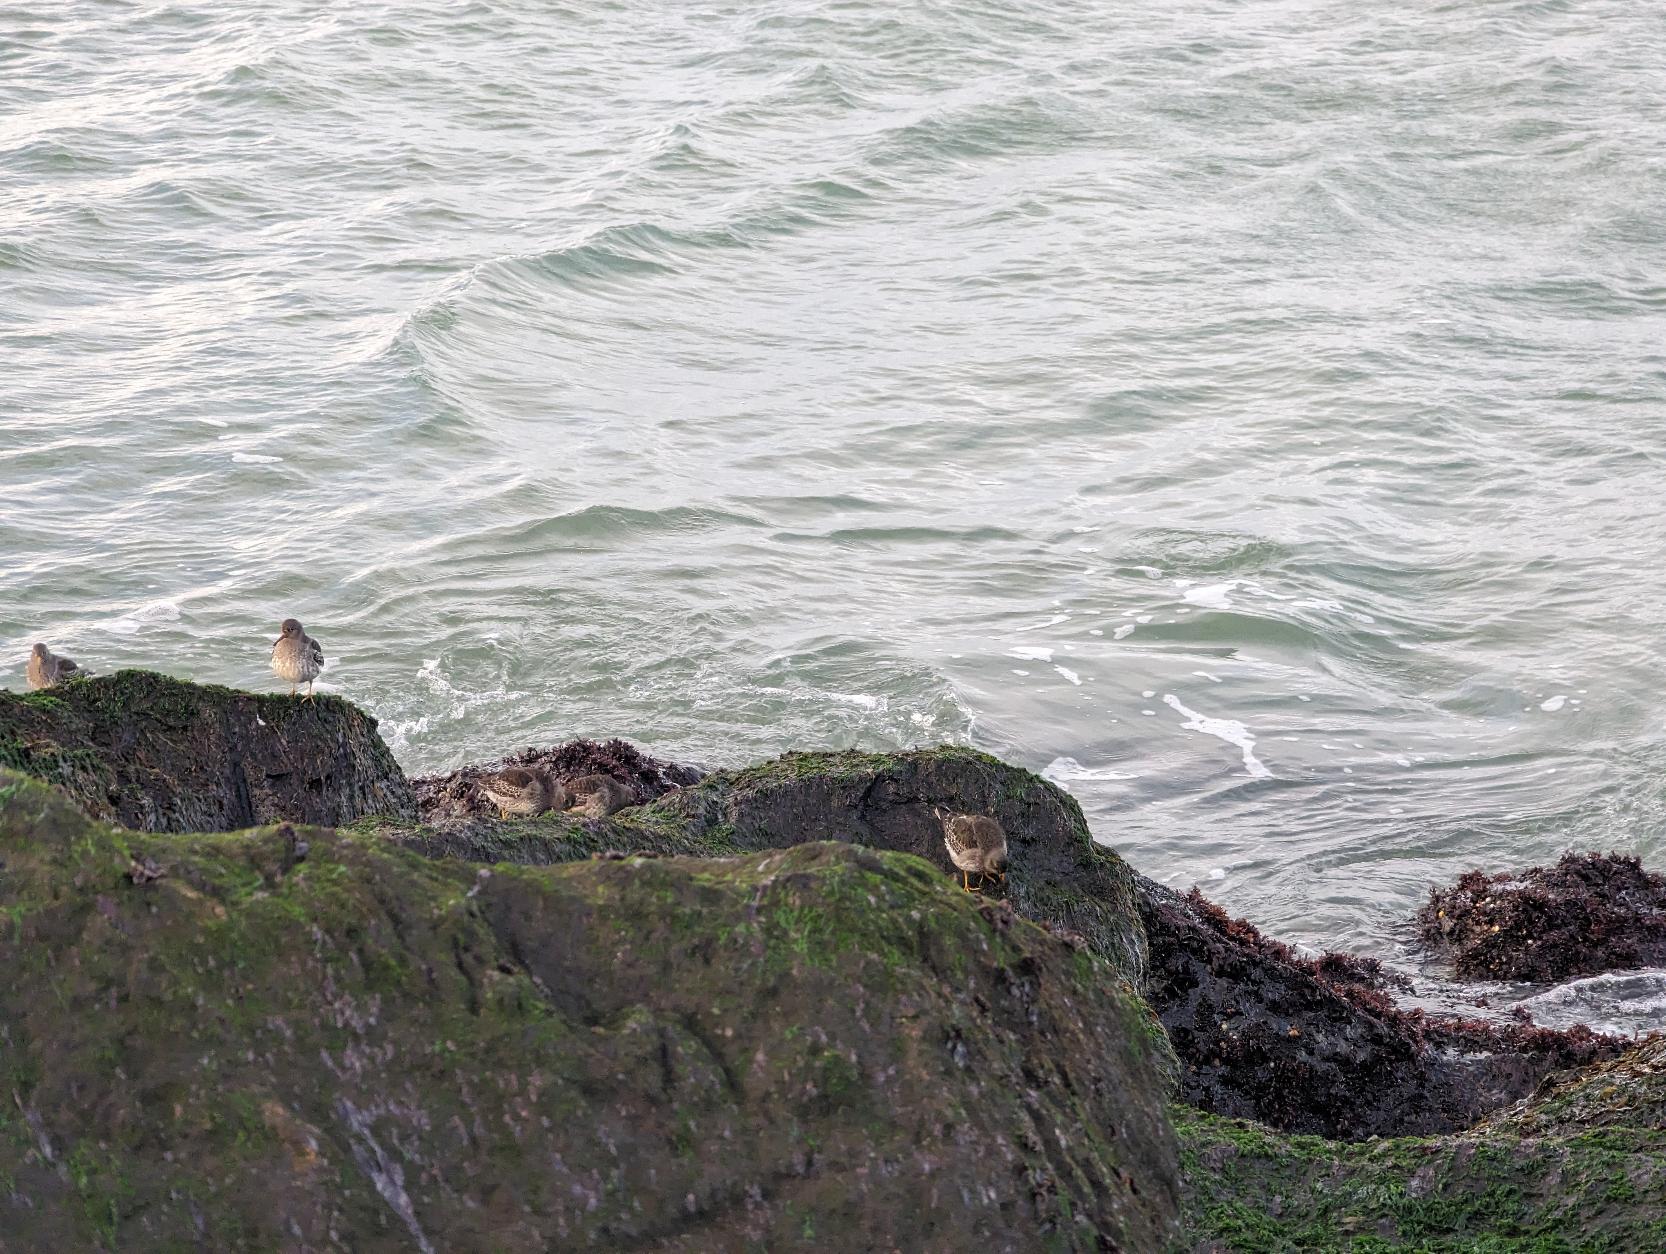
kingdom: Animalia
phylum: Chordata
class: Aves
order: Charadriiformes
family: Scolopacidae
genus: Calidris
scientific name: Calidris maritima
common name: Sortgrå ryle
